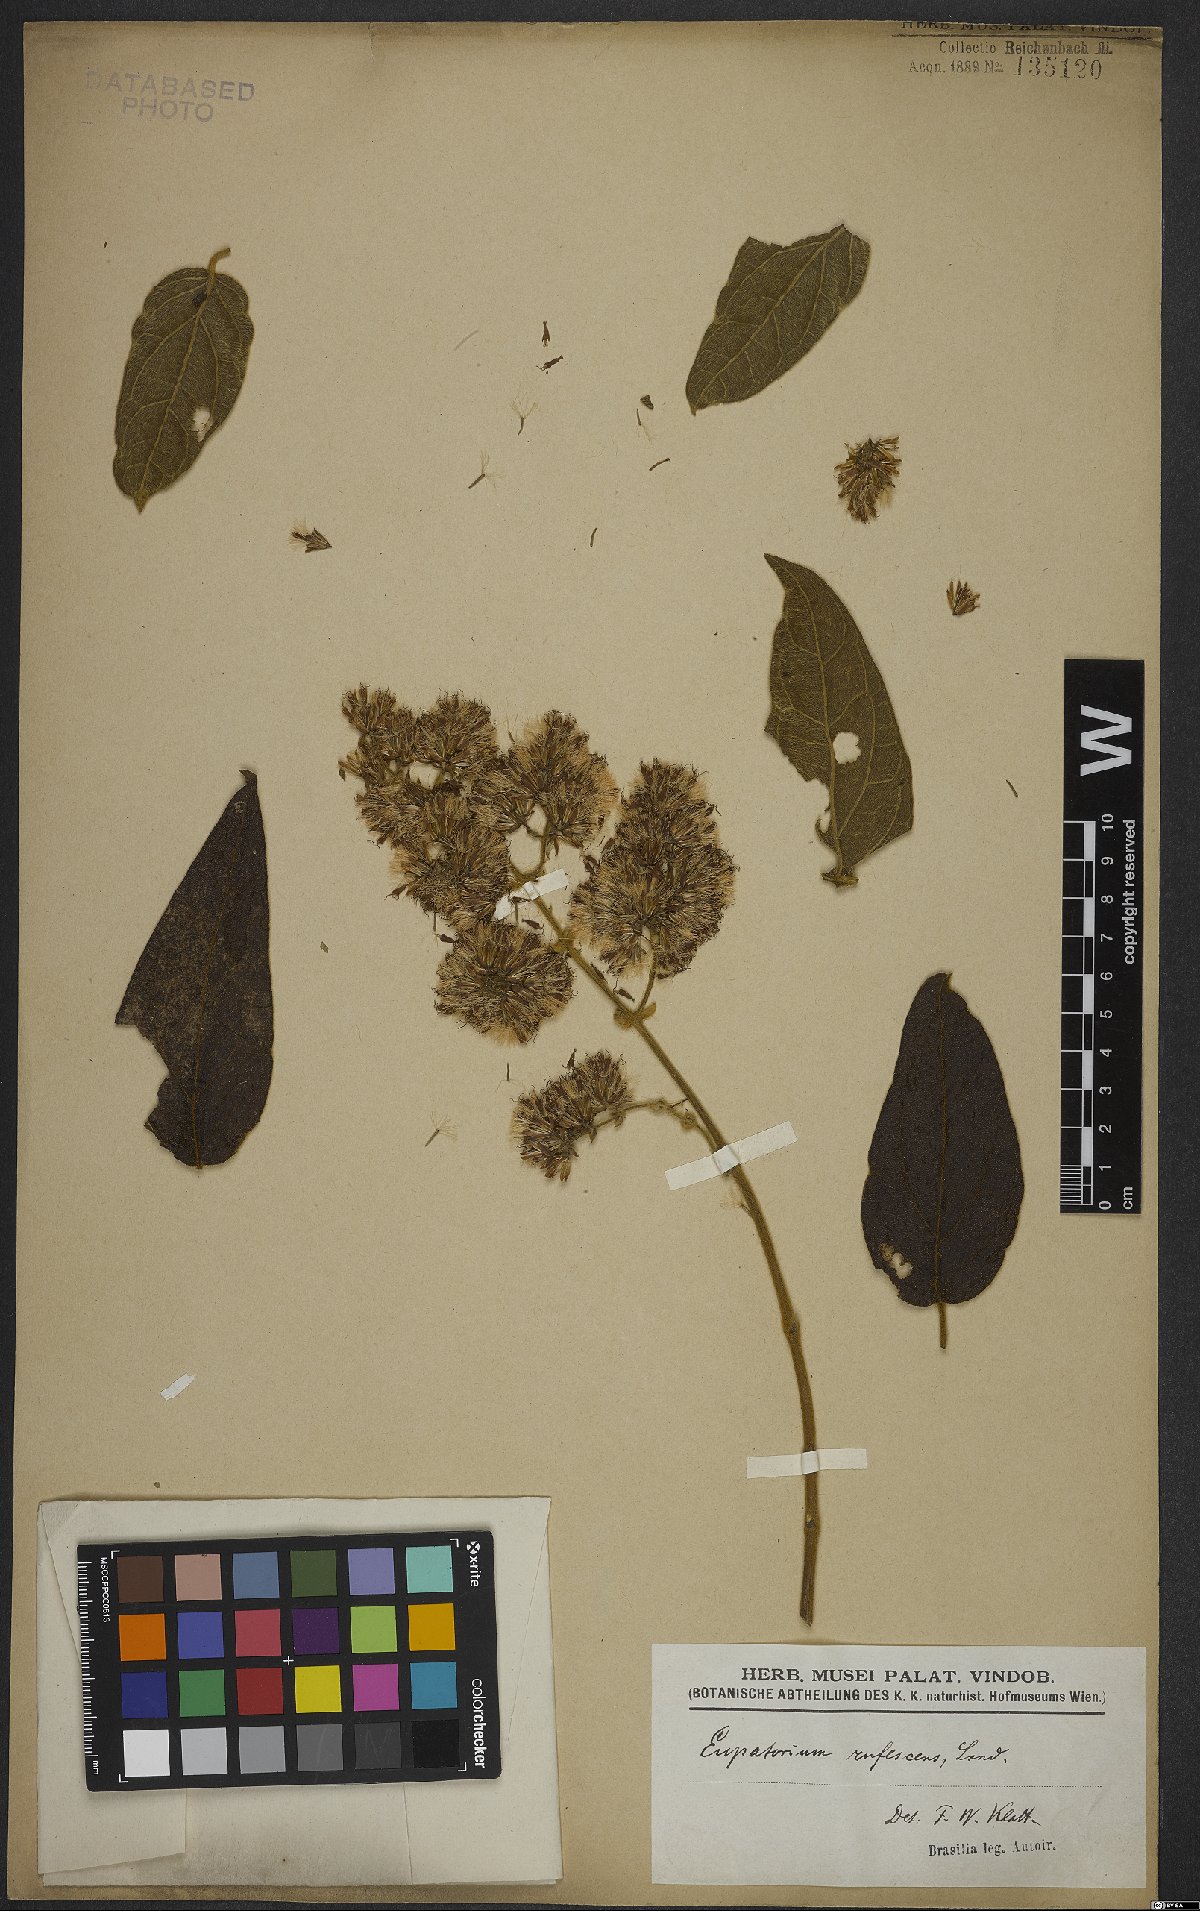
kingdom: Plantae
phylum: Tracheophyta
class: Magnoliopsida
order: Asterales
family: Asteraceae
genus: Kaunia
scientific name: Kaunia rufescens
